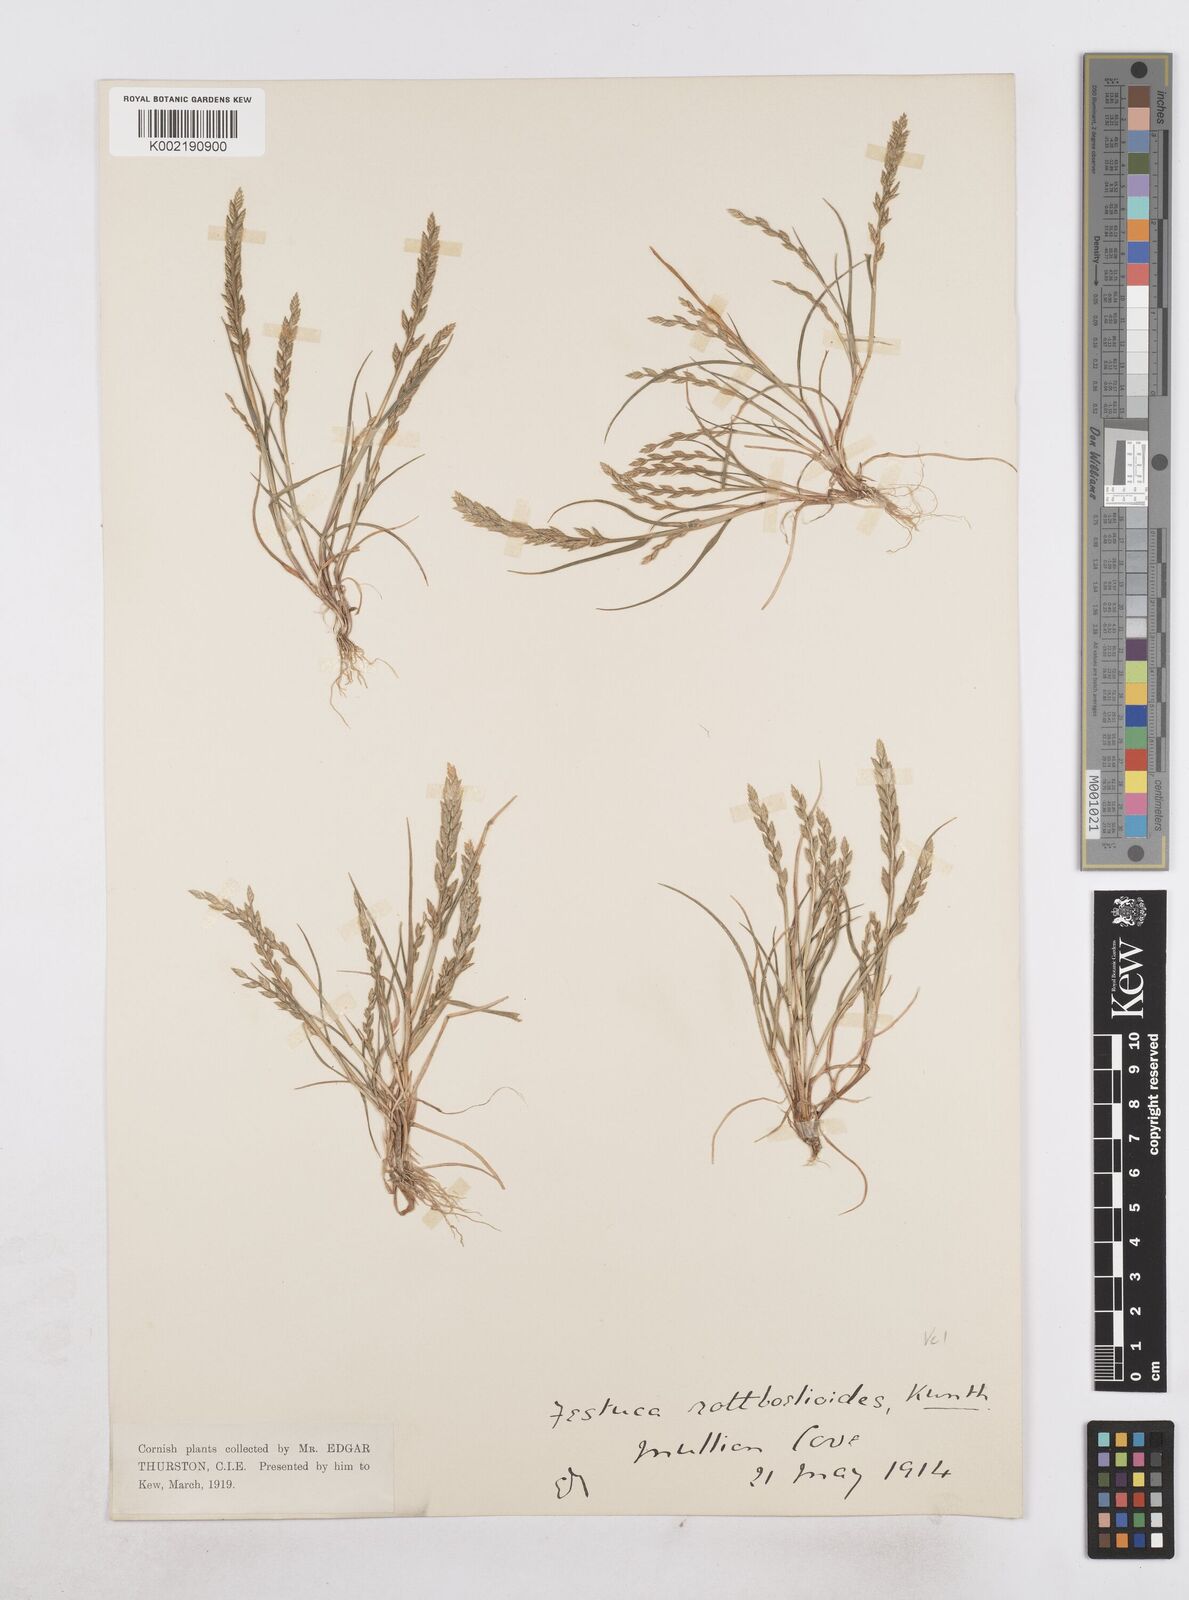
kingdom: Plantae
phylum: Tracheophyta
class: Liliopsida
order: Poales
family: Poaceae
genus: Catapodium
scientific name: Catapodium marinum
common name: Sea fern-grass
